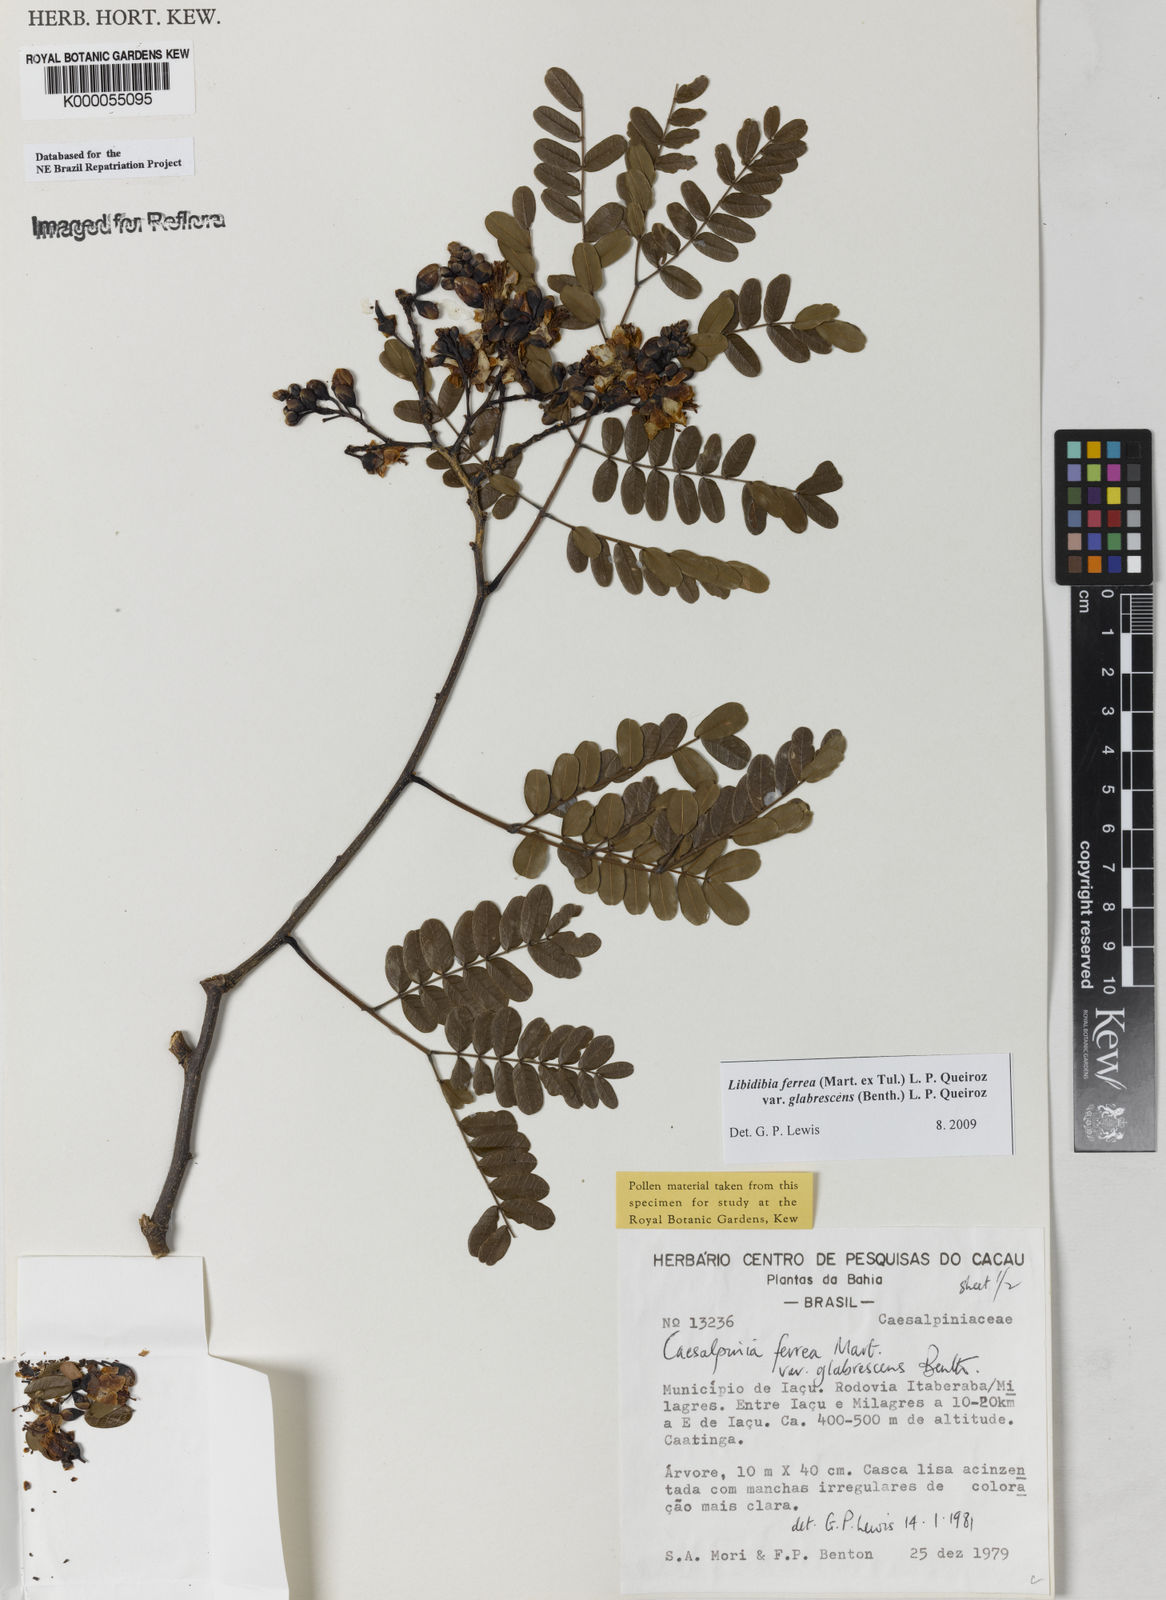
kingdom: Plantae
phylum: Tracheophyta
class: Magnoliopsida
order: Fabales
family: Fabaceae
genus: Libidibia
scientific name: Libidibia ferrea
